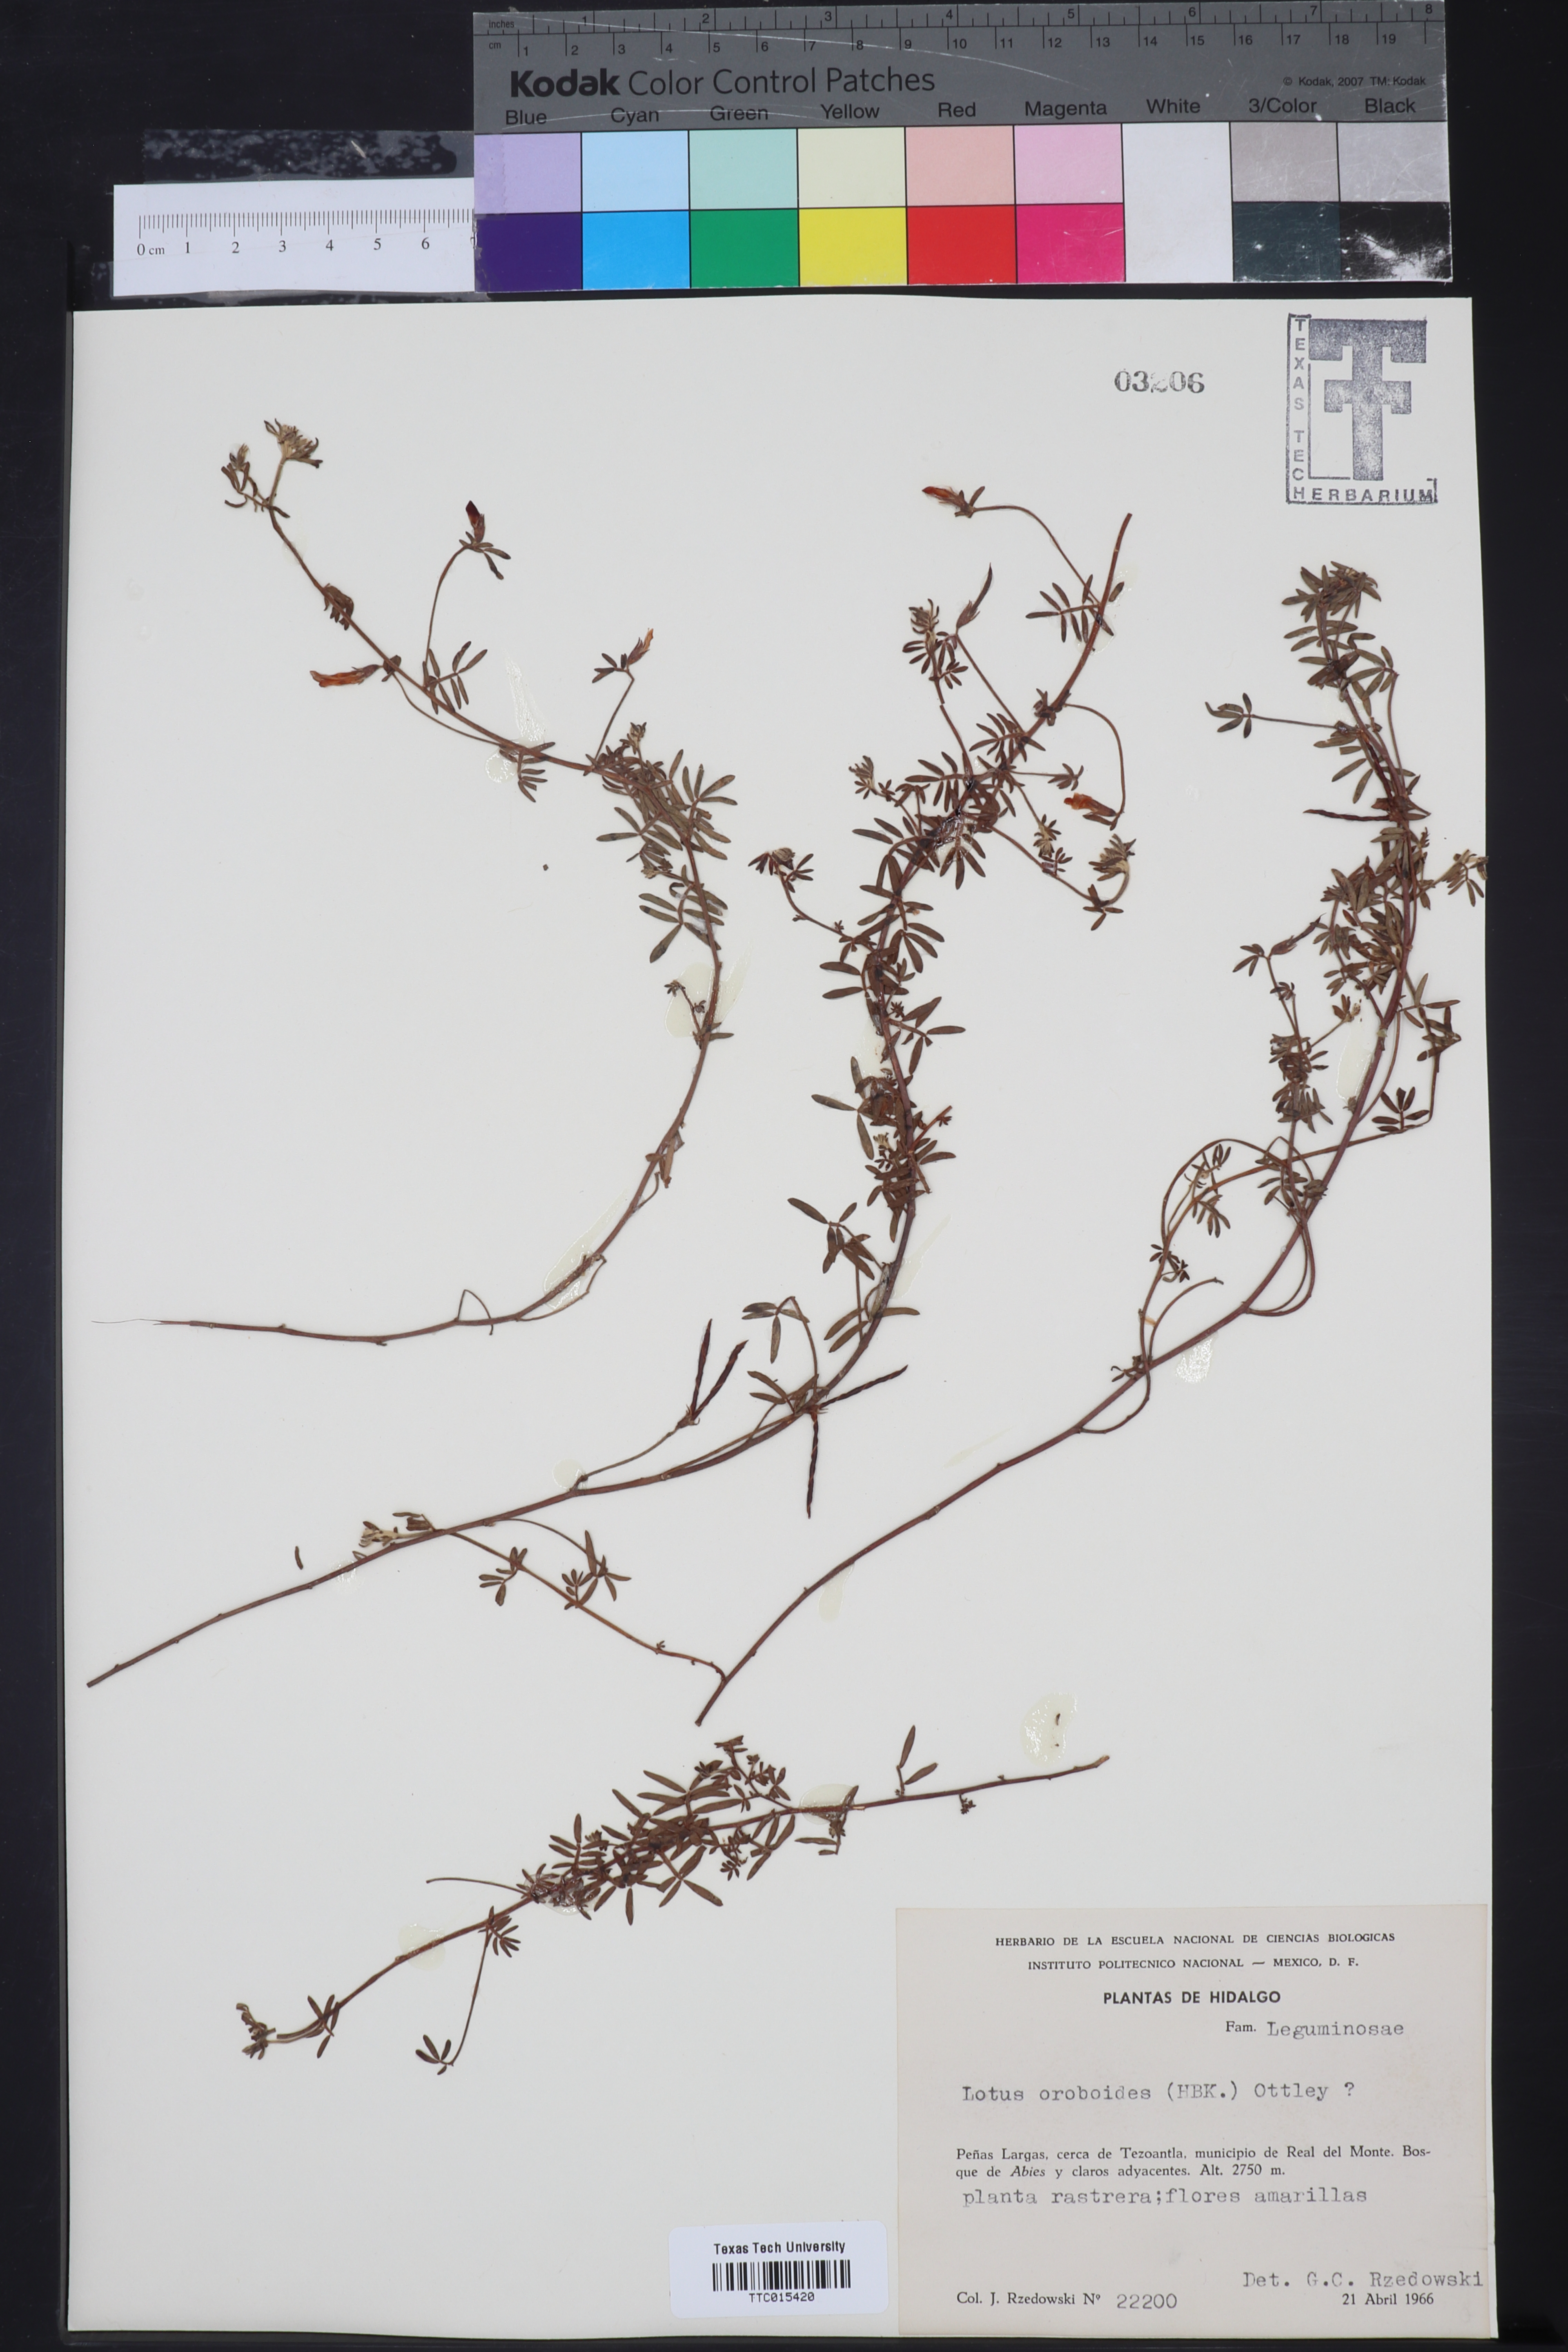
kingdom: Plantae
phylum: Tracheophyta
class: Magnoliopsida
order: Fabales
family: Fabaceae
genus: Acmispon
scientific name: Acmispon oroboides
